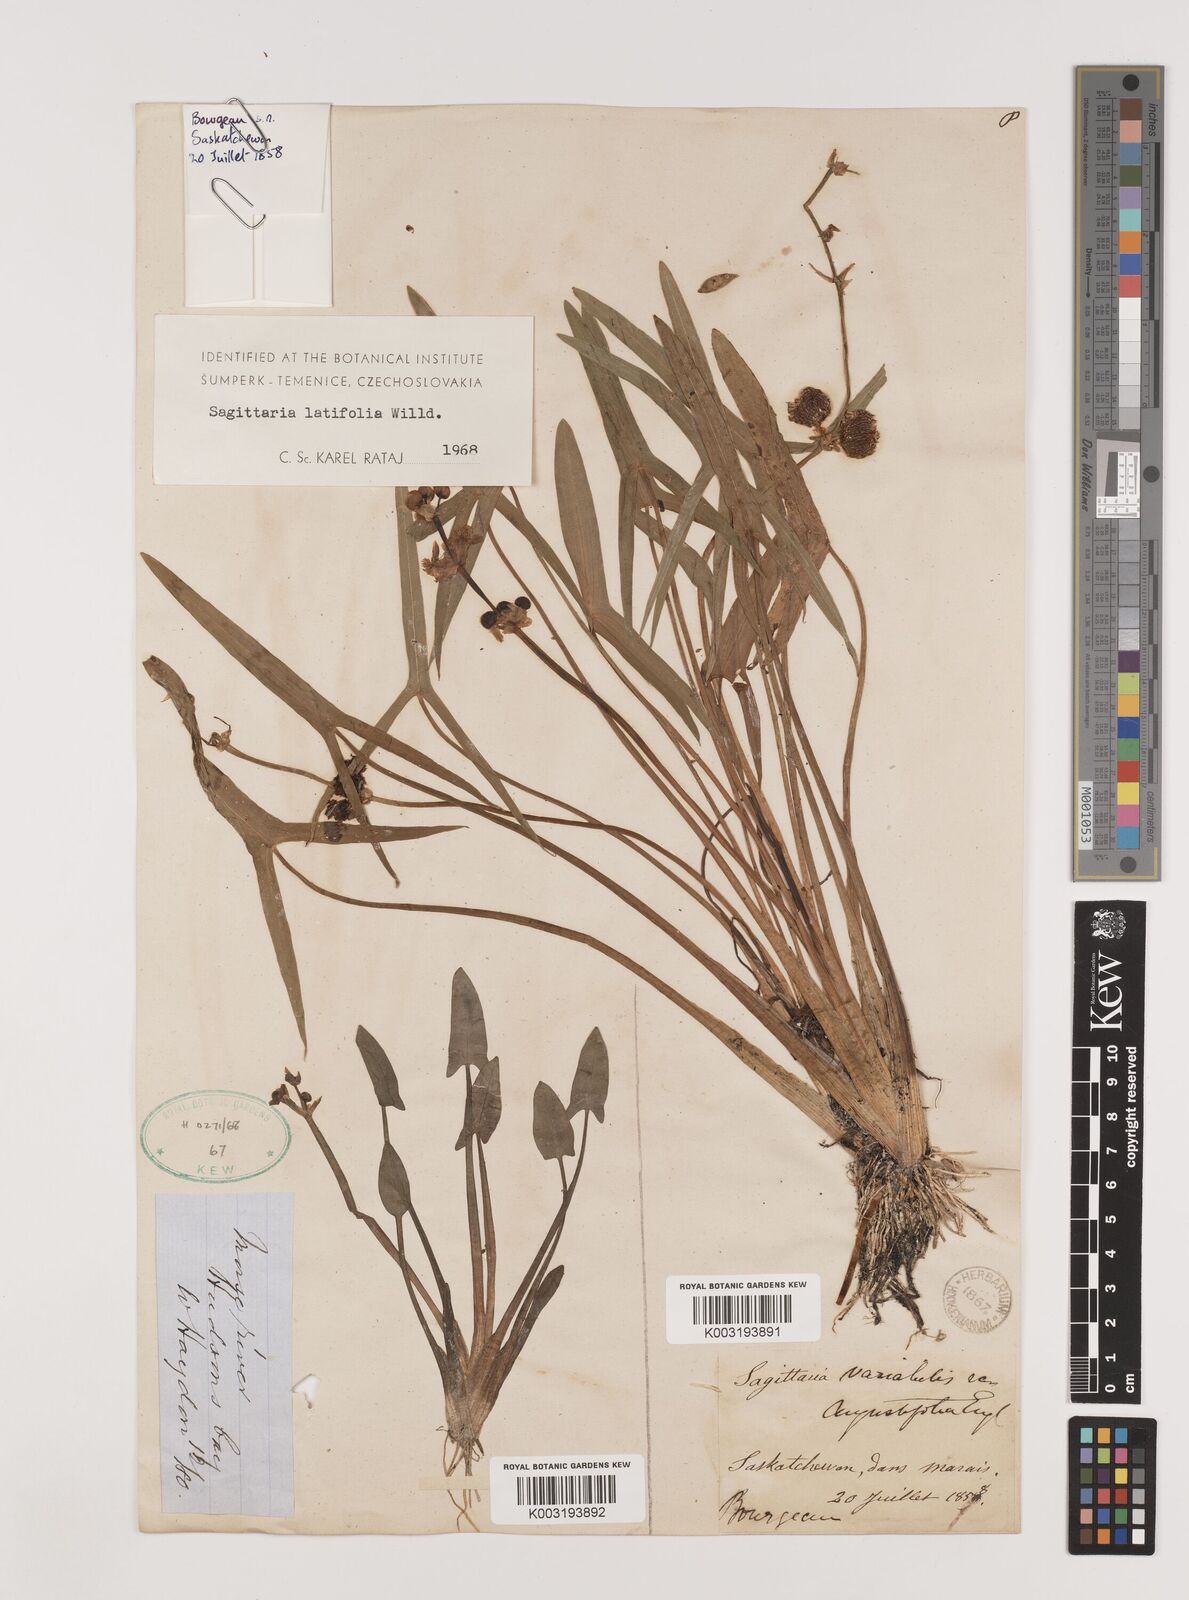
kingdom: Plantae
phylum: Tracheophyta
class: Liliopsida
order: Alismatales
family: Alismataceae
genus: Sagittaria
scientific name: Sagittaria latifolia
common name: Duck-potato
